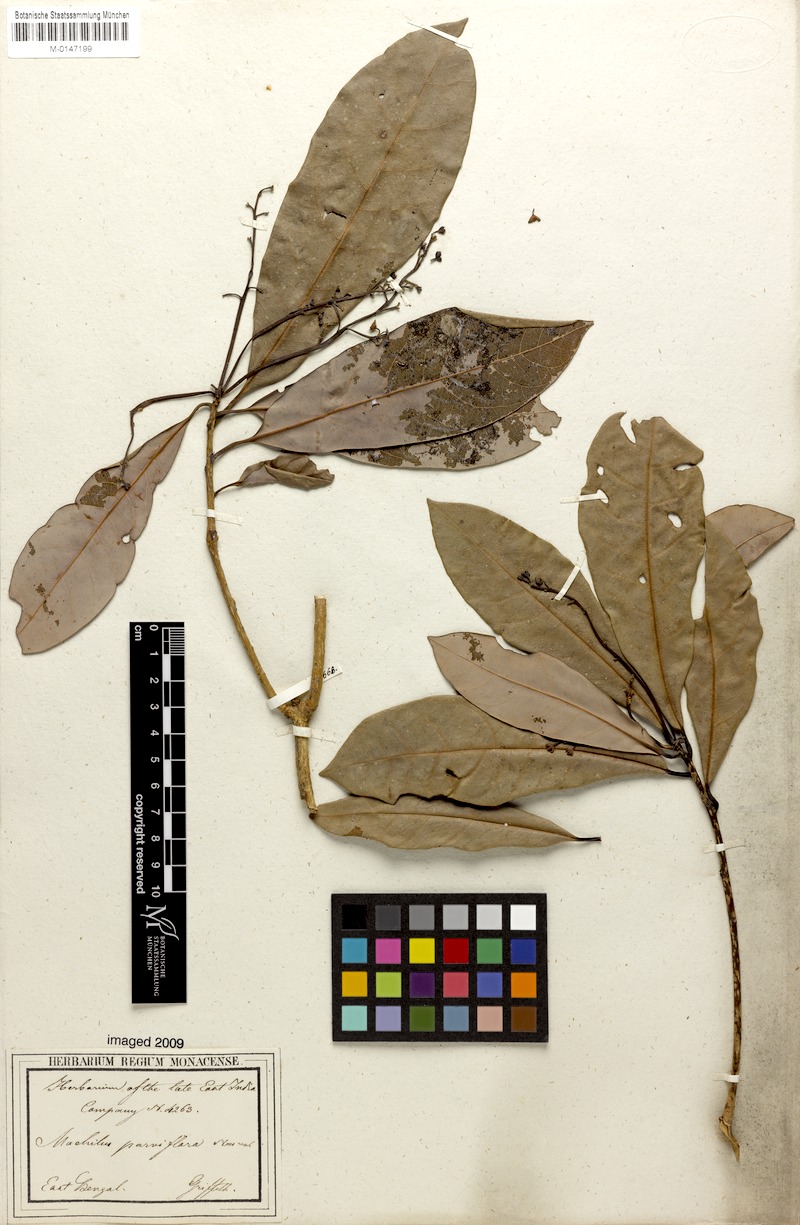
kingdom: Plantae
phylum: Tracheophyta
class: Magnoliopsida
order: Laurales
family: Lauraceae
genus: Machilus
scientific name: Machilus parviflora
